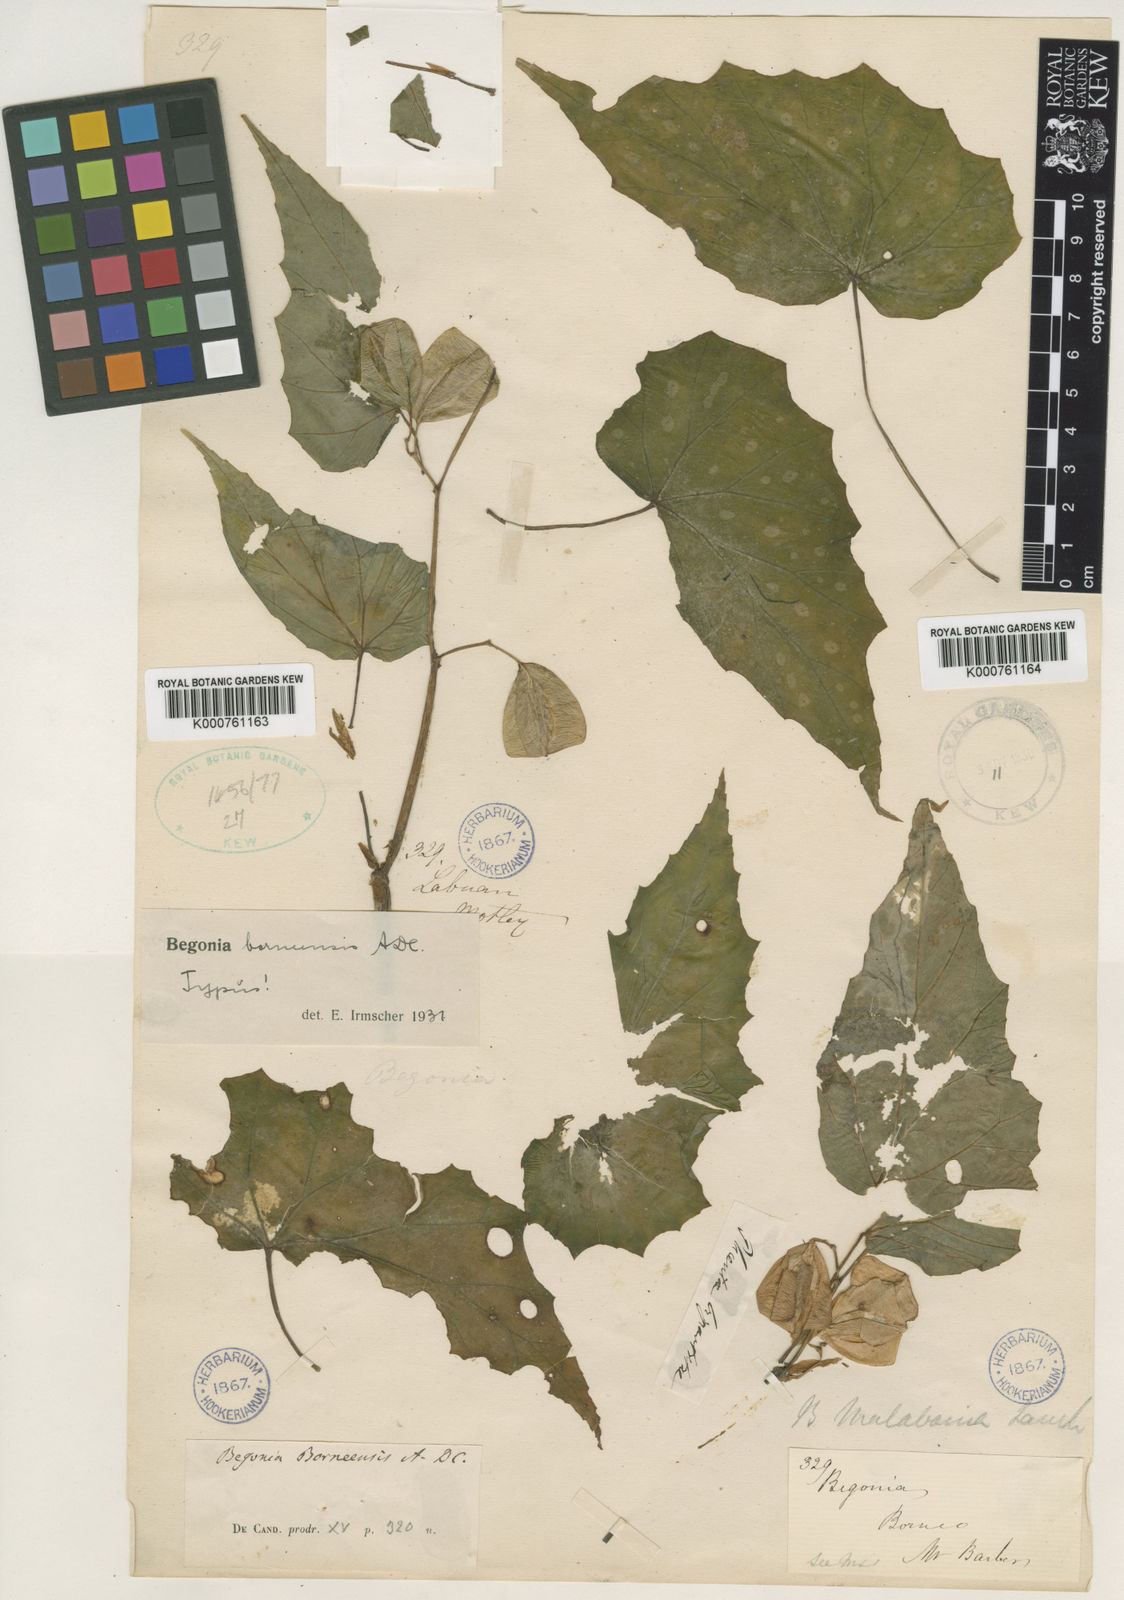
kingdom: Plantae
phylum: Tracheophyta
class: Magnoliopsida
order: Cucurbitales
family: Begoniaceae
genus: Begonia
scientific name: Begonia borneensis
